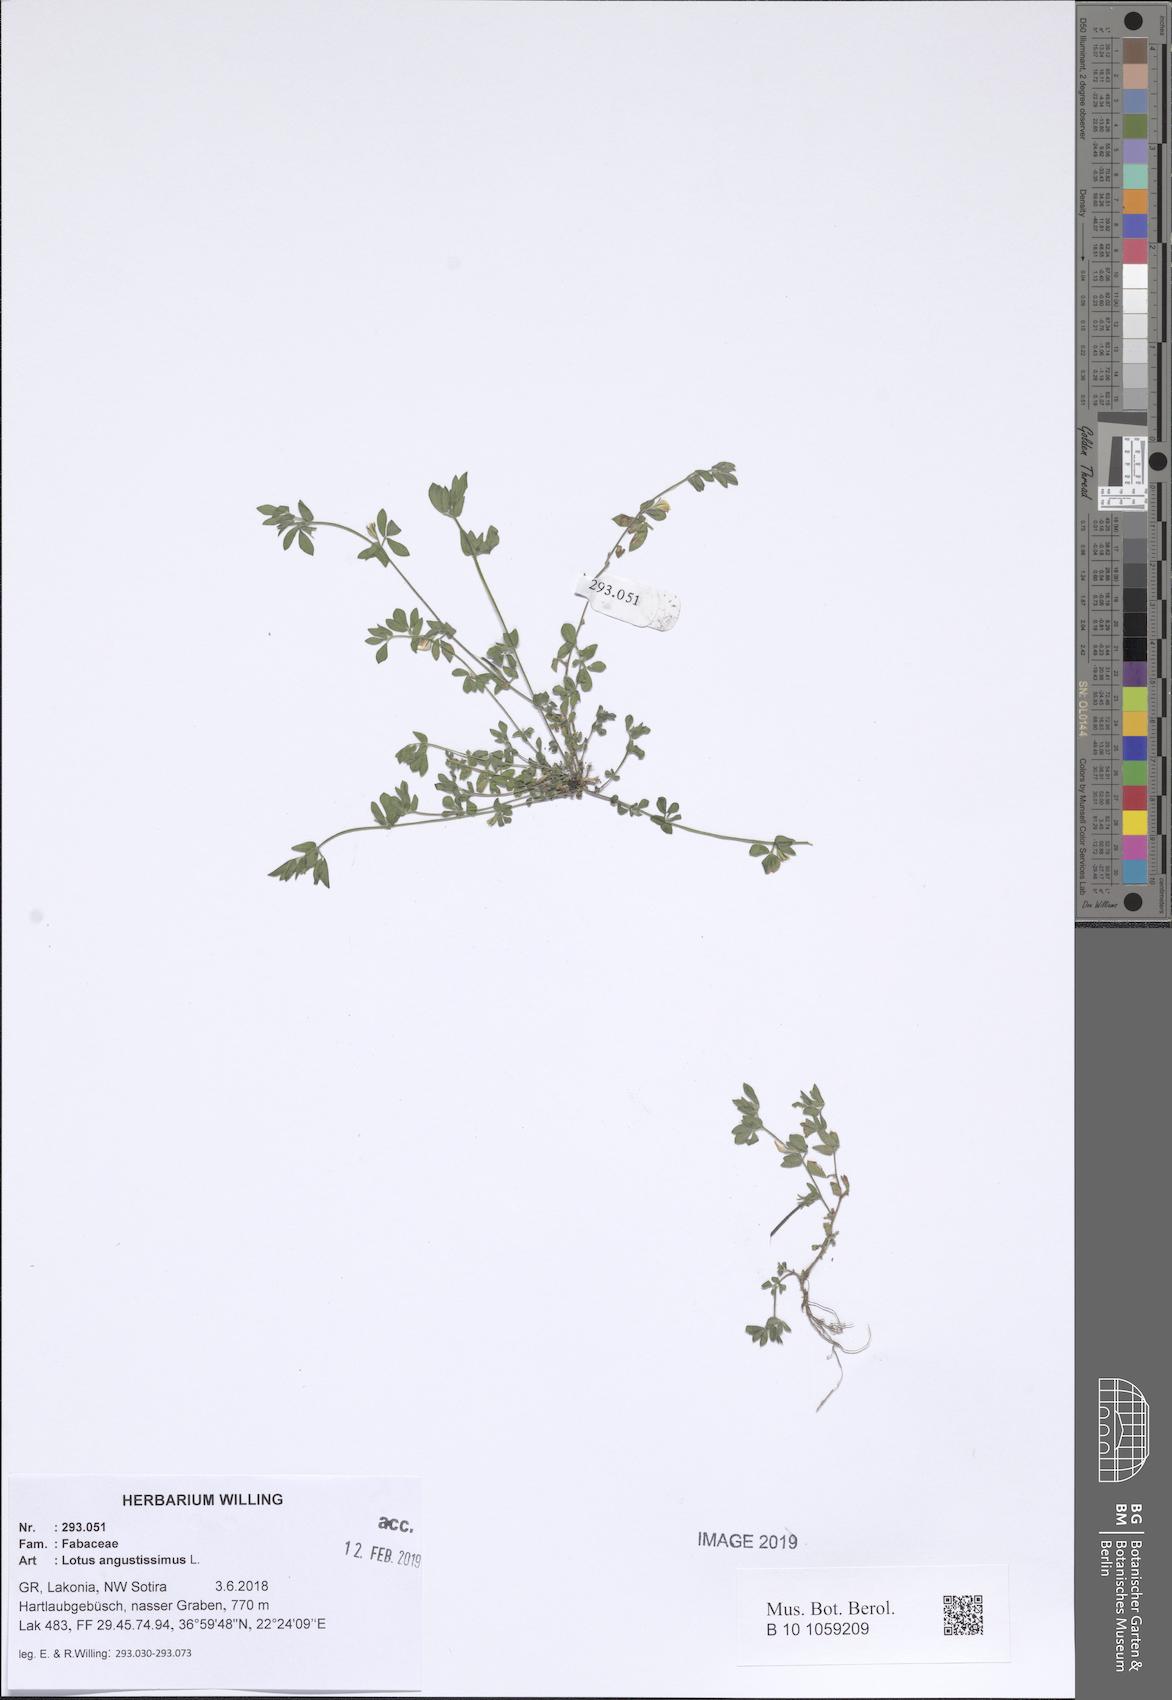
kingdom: Plantae
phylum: Tracheophyta
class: Magnoliopsida
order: Fabales
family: Fabaceae
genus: Lotus
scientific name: Lotus angustissimus
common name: Slender bird's-foot trefoil
